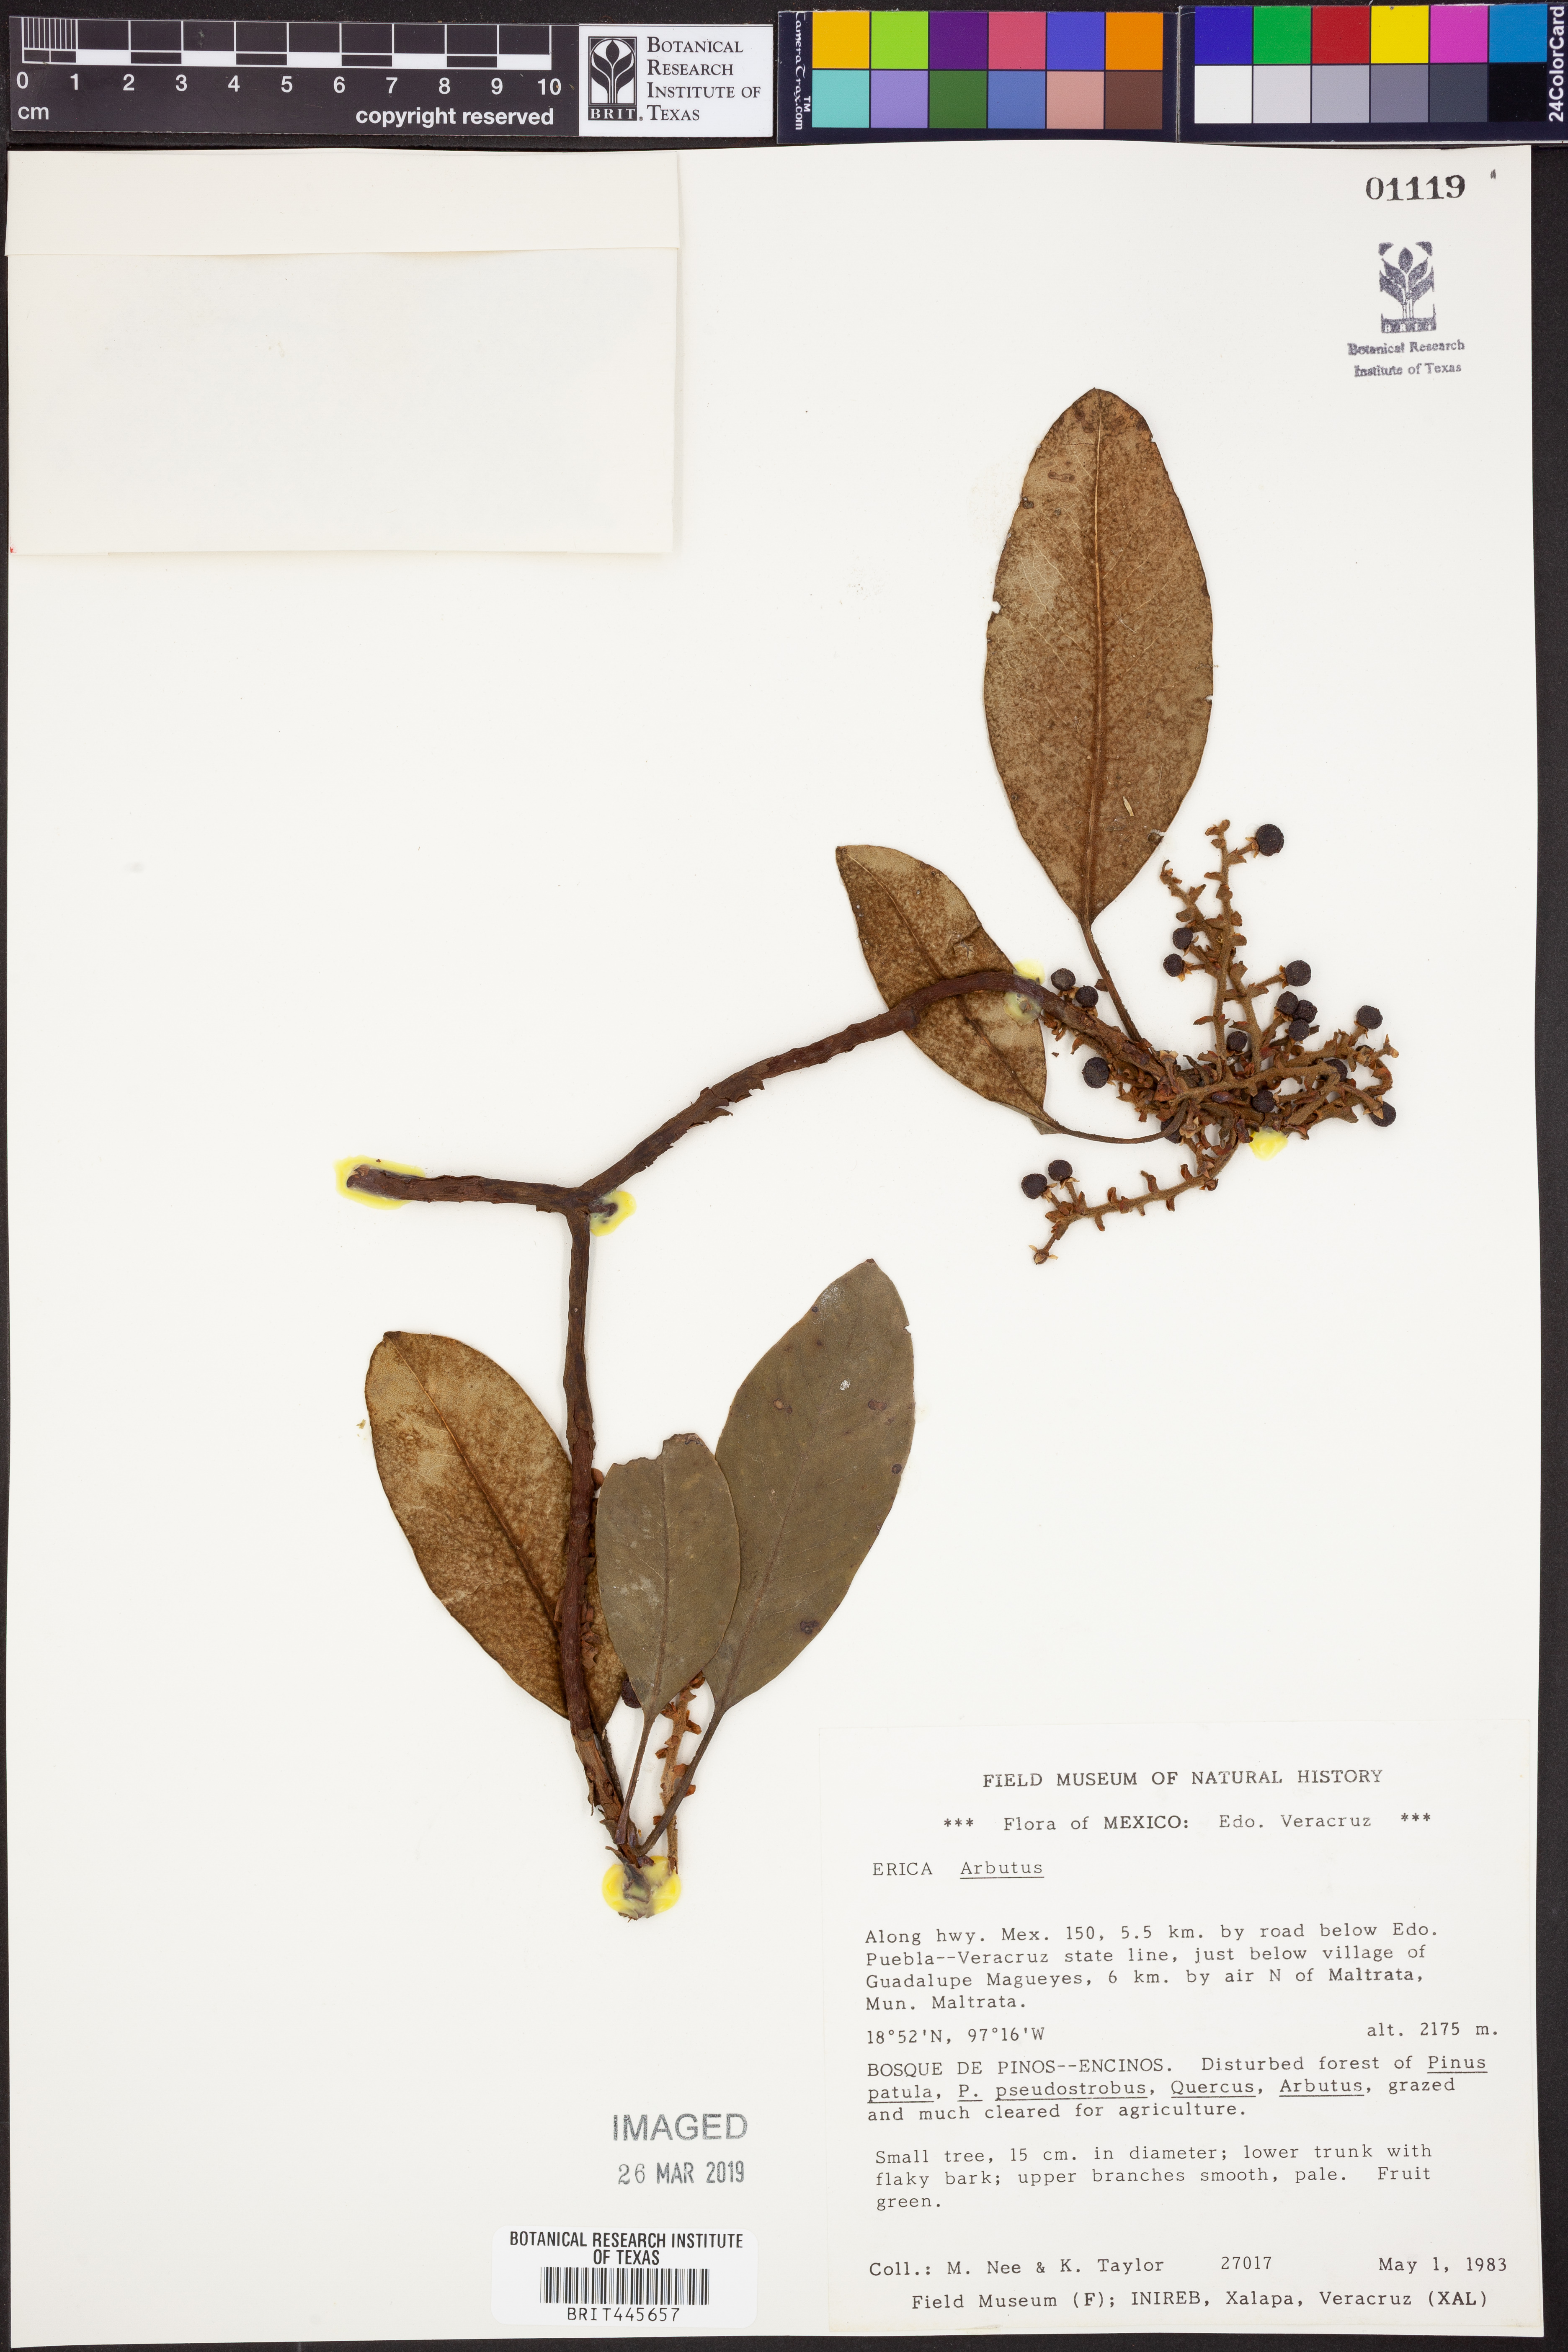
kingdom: Plantae
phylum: Tracheophyta
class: Magnoliopsida
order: Ericales
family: Ericaceae
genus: Arbutus
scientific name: Arbutus
